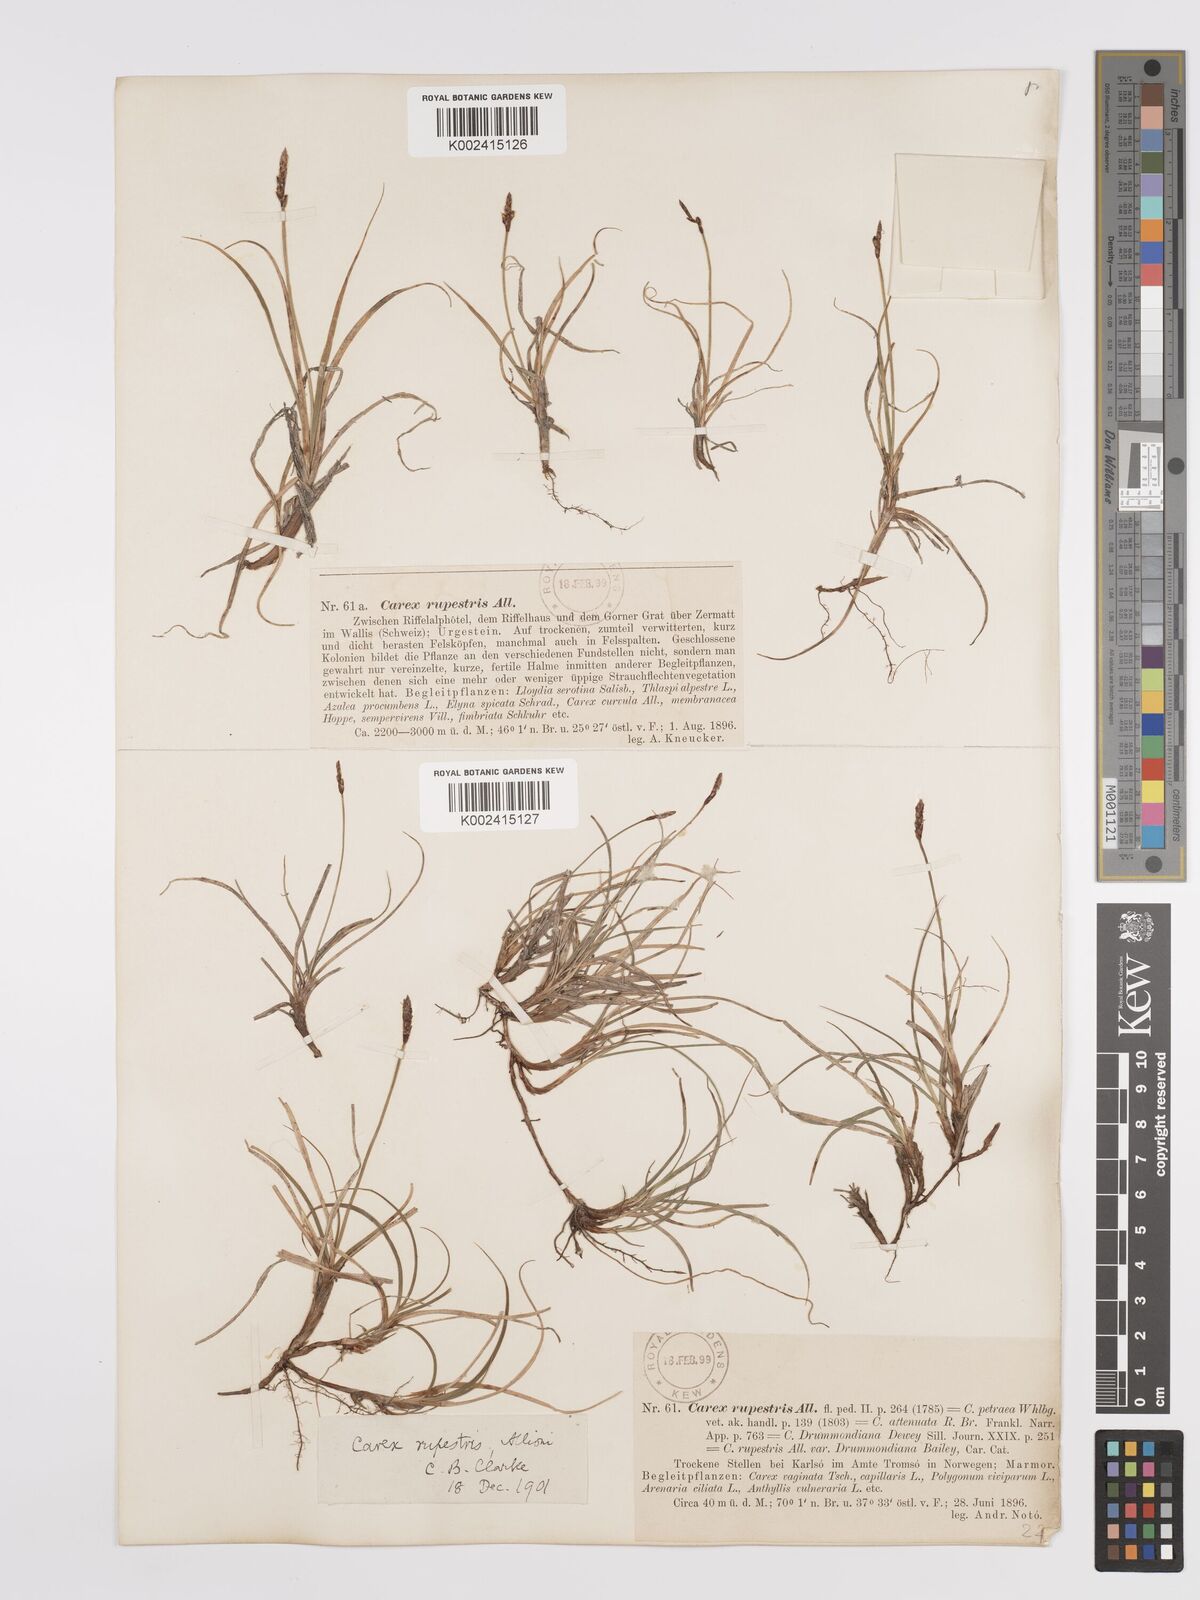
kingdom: Plantae
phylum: Tracheophyta
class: Liliopsida
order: Poales
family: Cyperaceae
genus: Carex
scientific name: Carex rupestris
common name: Rock sedge
